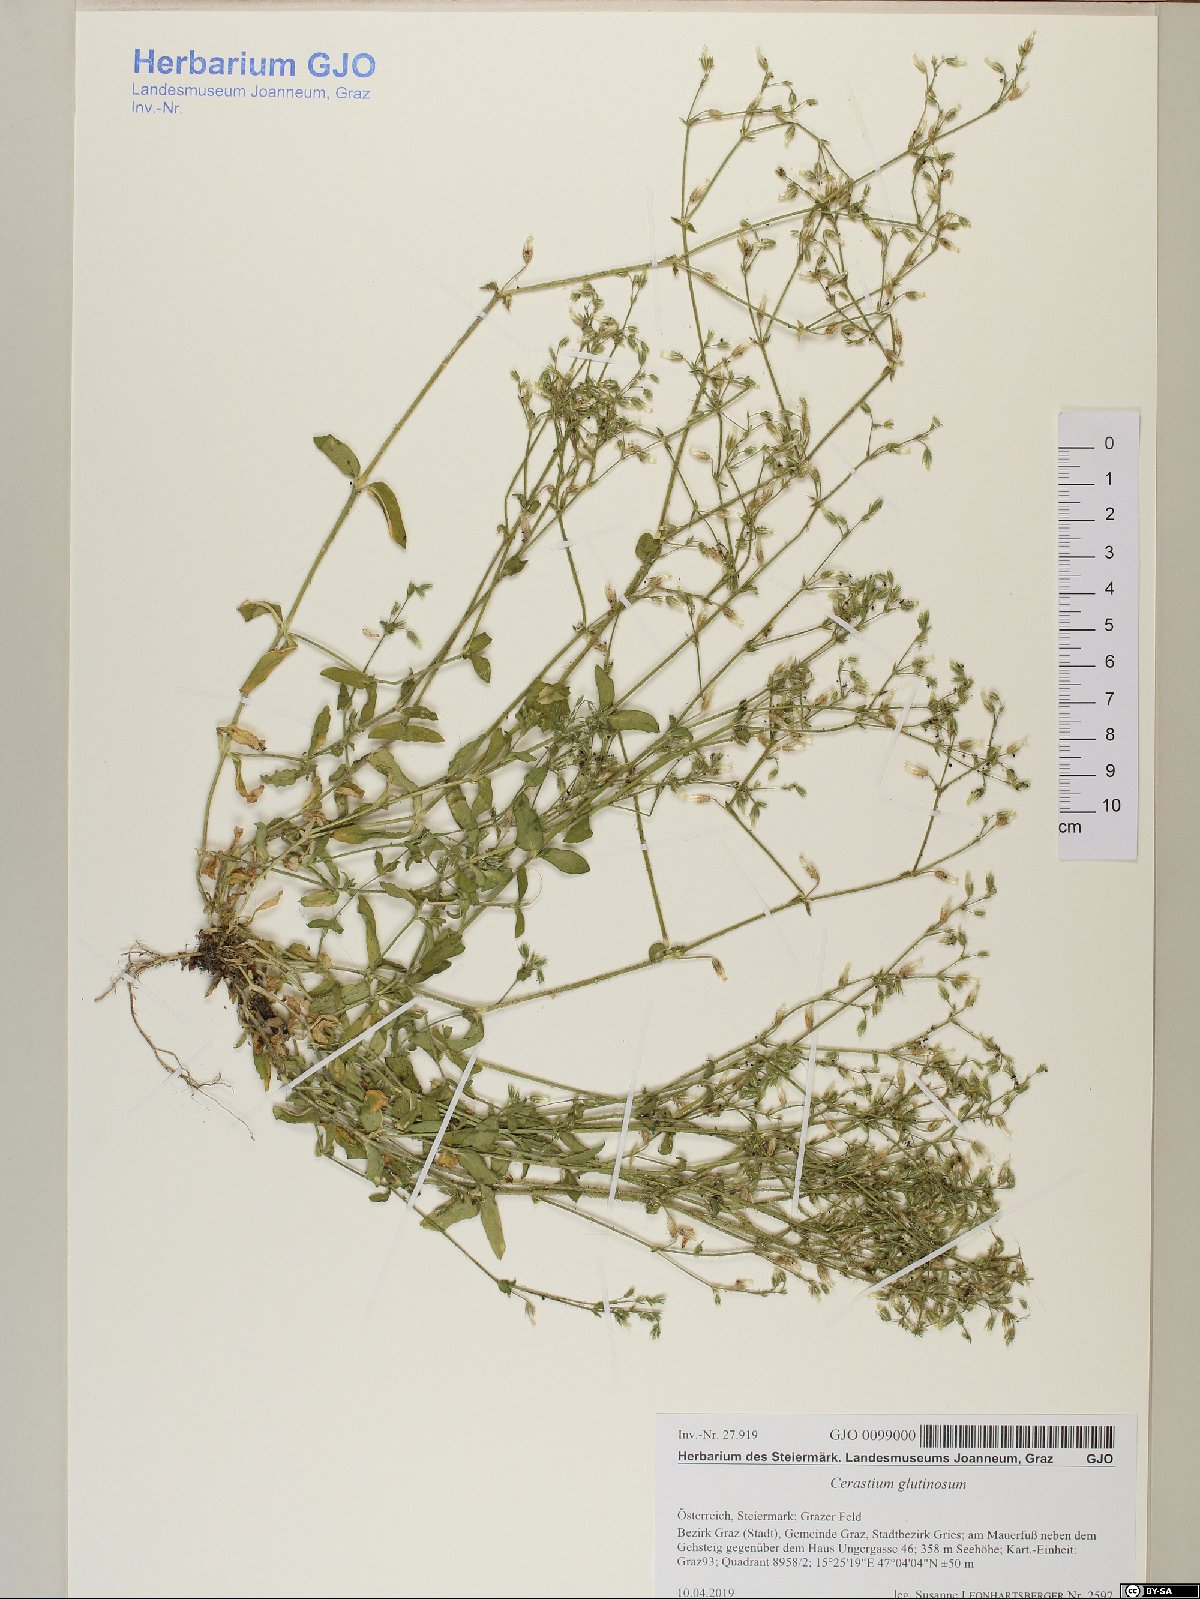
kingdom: Plantae
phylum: Tracheophyta
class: Magnoliopsida
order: Caryophyllales
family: Caryophyllaceae
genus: Cerastium
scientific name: Cerastium glutinosum
